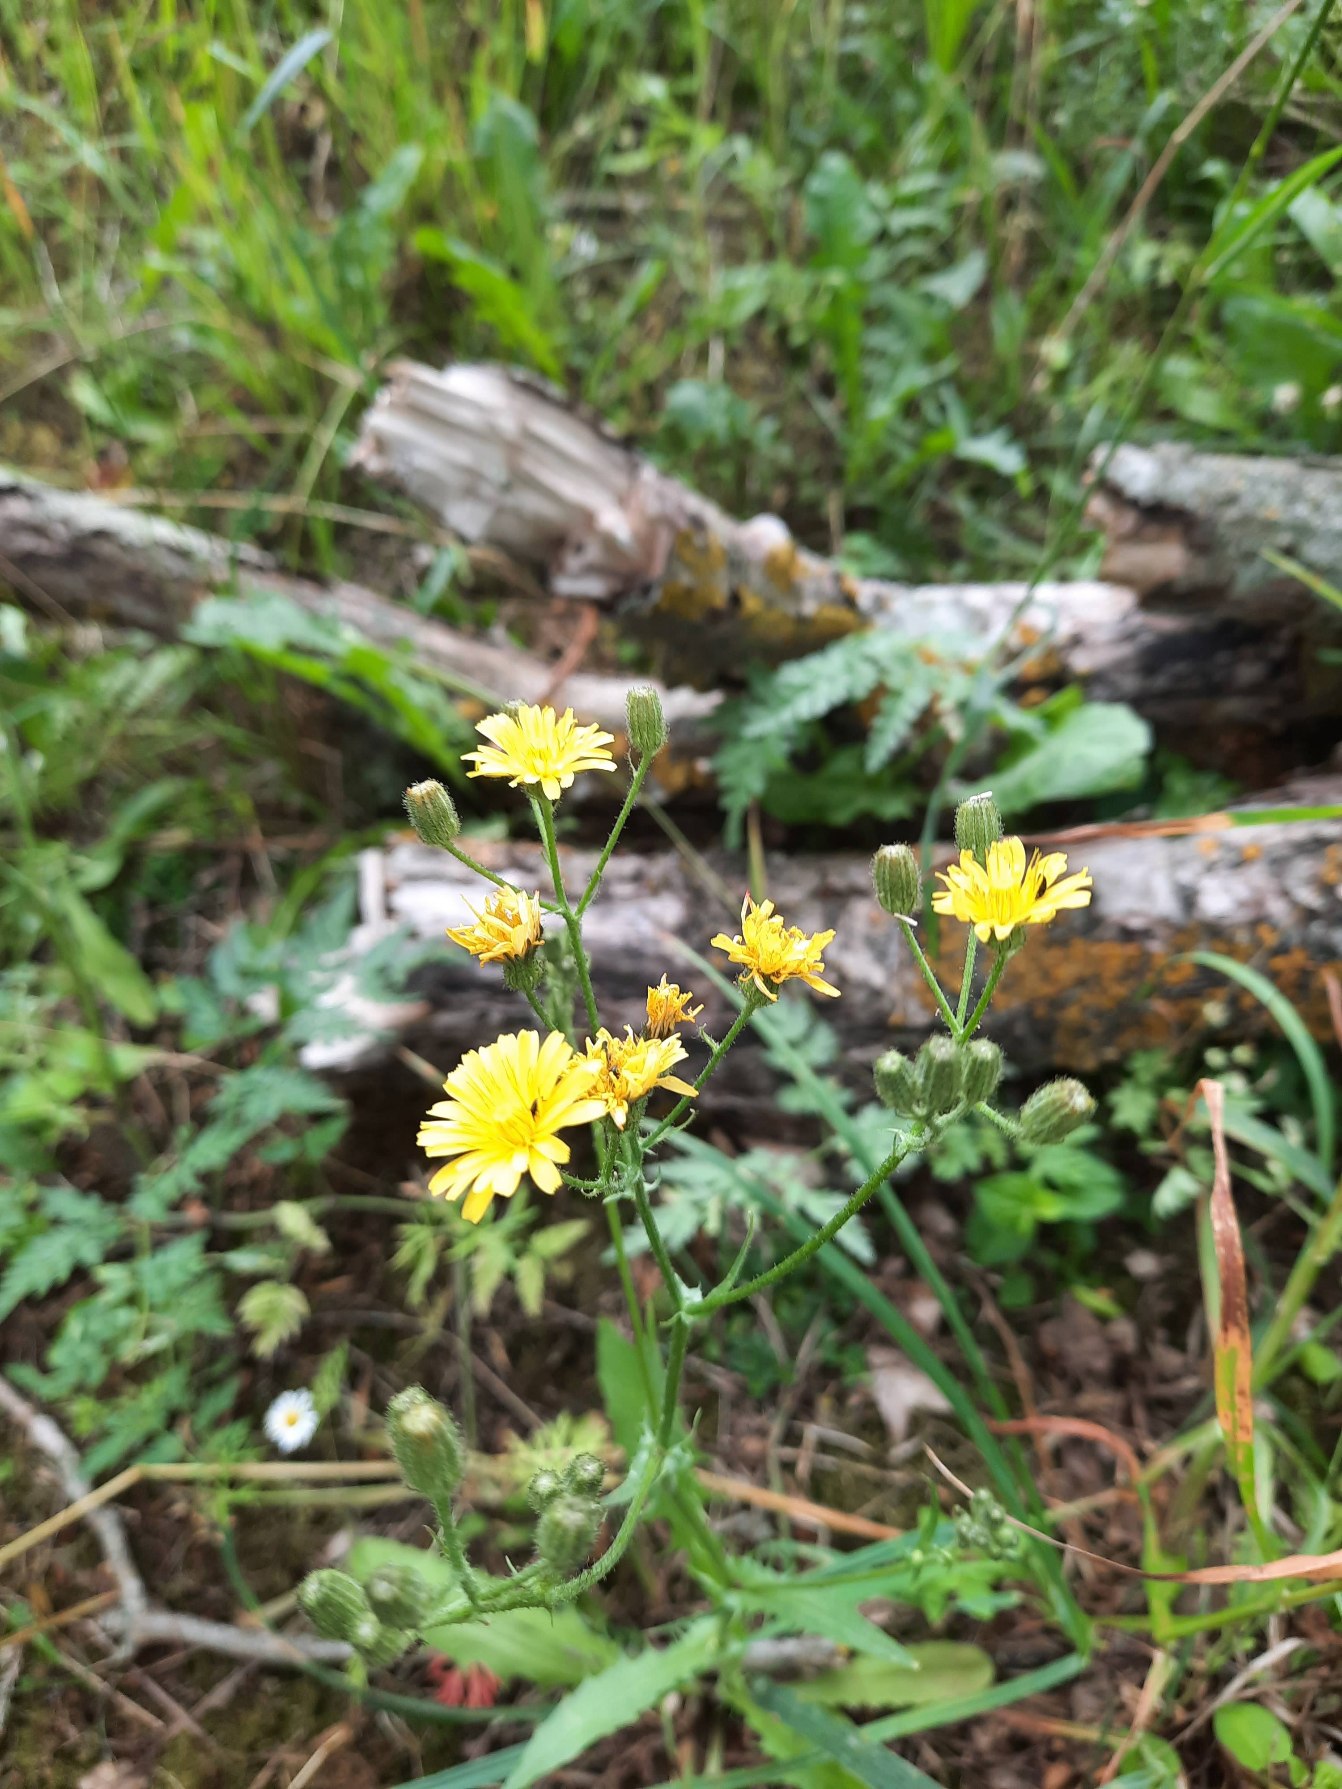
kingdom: Plantae
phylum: Tracheophyta
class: Magnoliopsida
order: Asterales
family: Asteraceae
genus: Crepis
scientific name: Crepis capillaris
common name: Grøn høgeskæg
